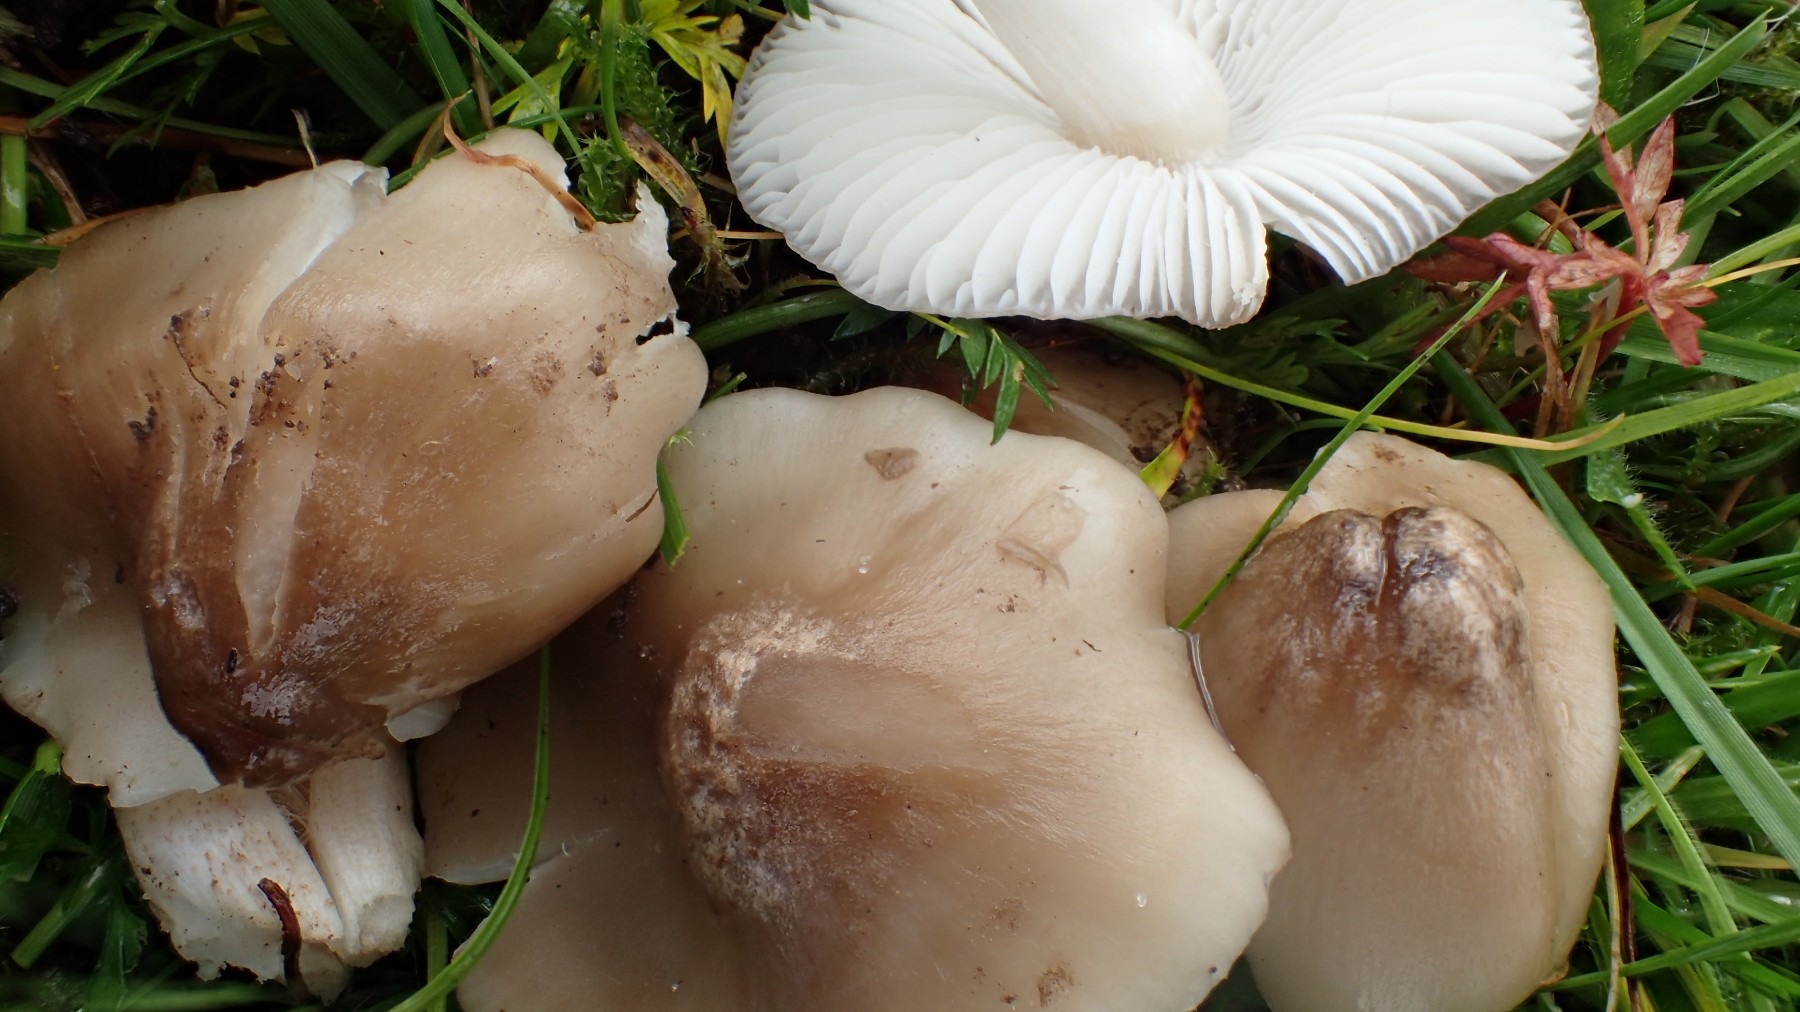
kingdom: Fungi
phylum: Basidiomycota
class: Agaricomycetes
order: Agaricales
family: Hygrophoraceae
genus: Cuphophyllus
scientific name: Cuphophyllus fornicatus
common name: gråbrun vokshat
